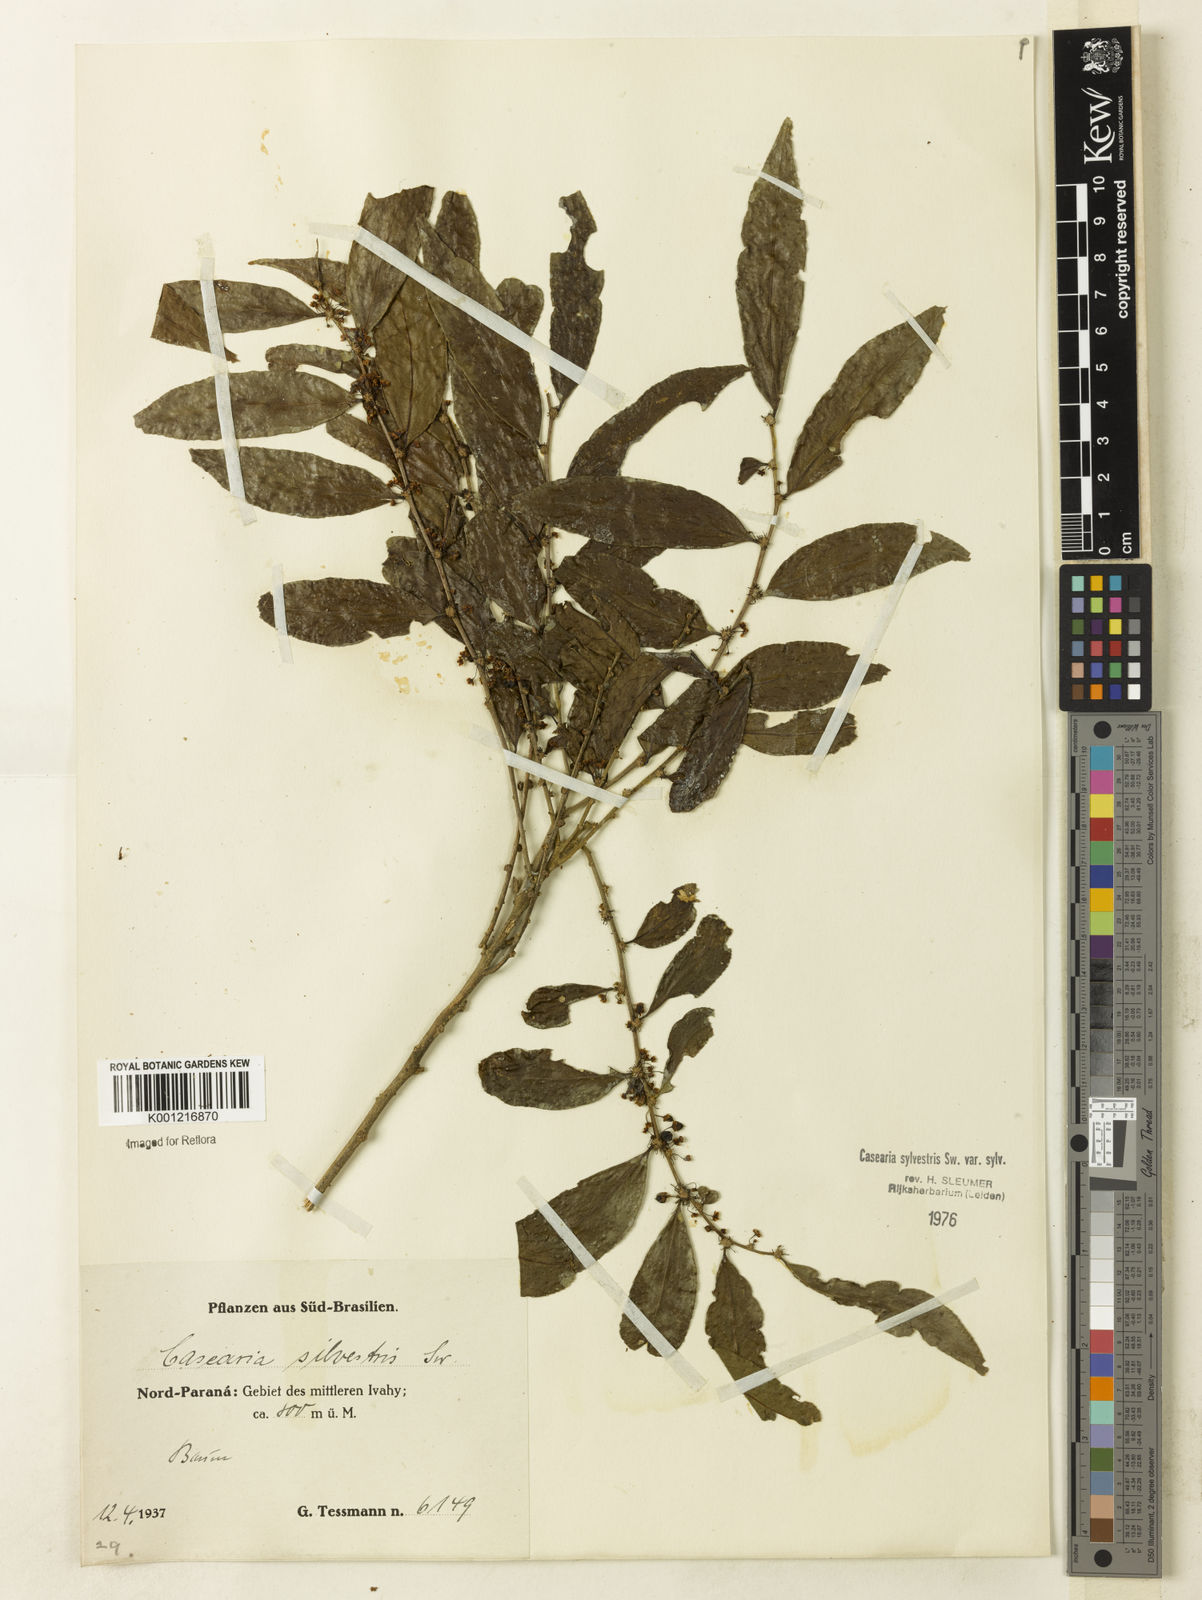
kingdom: Plantae
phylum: Tracheophyta
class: Magnoliopsida
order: Malpighiales
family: Salicaceae
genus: Casearia
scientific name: Casearia sylvestris
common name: Wild sage
